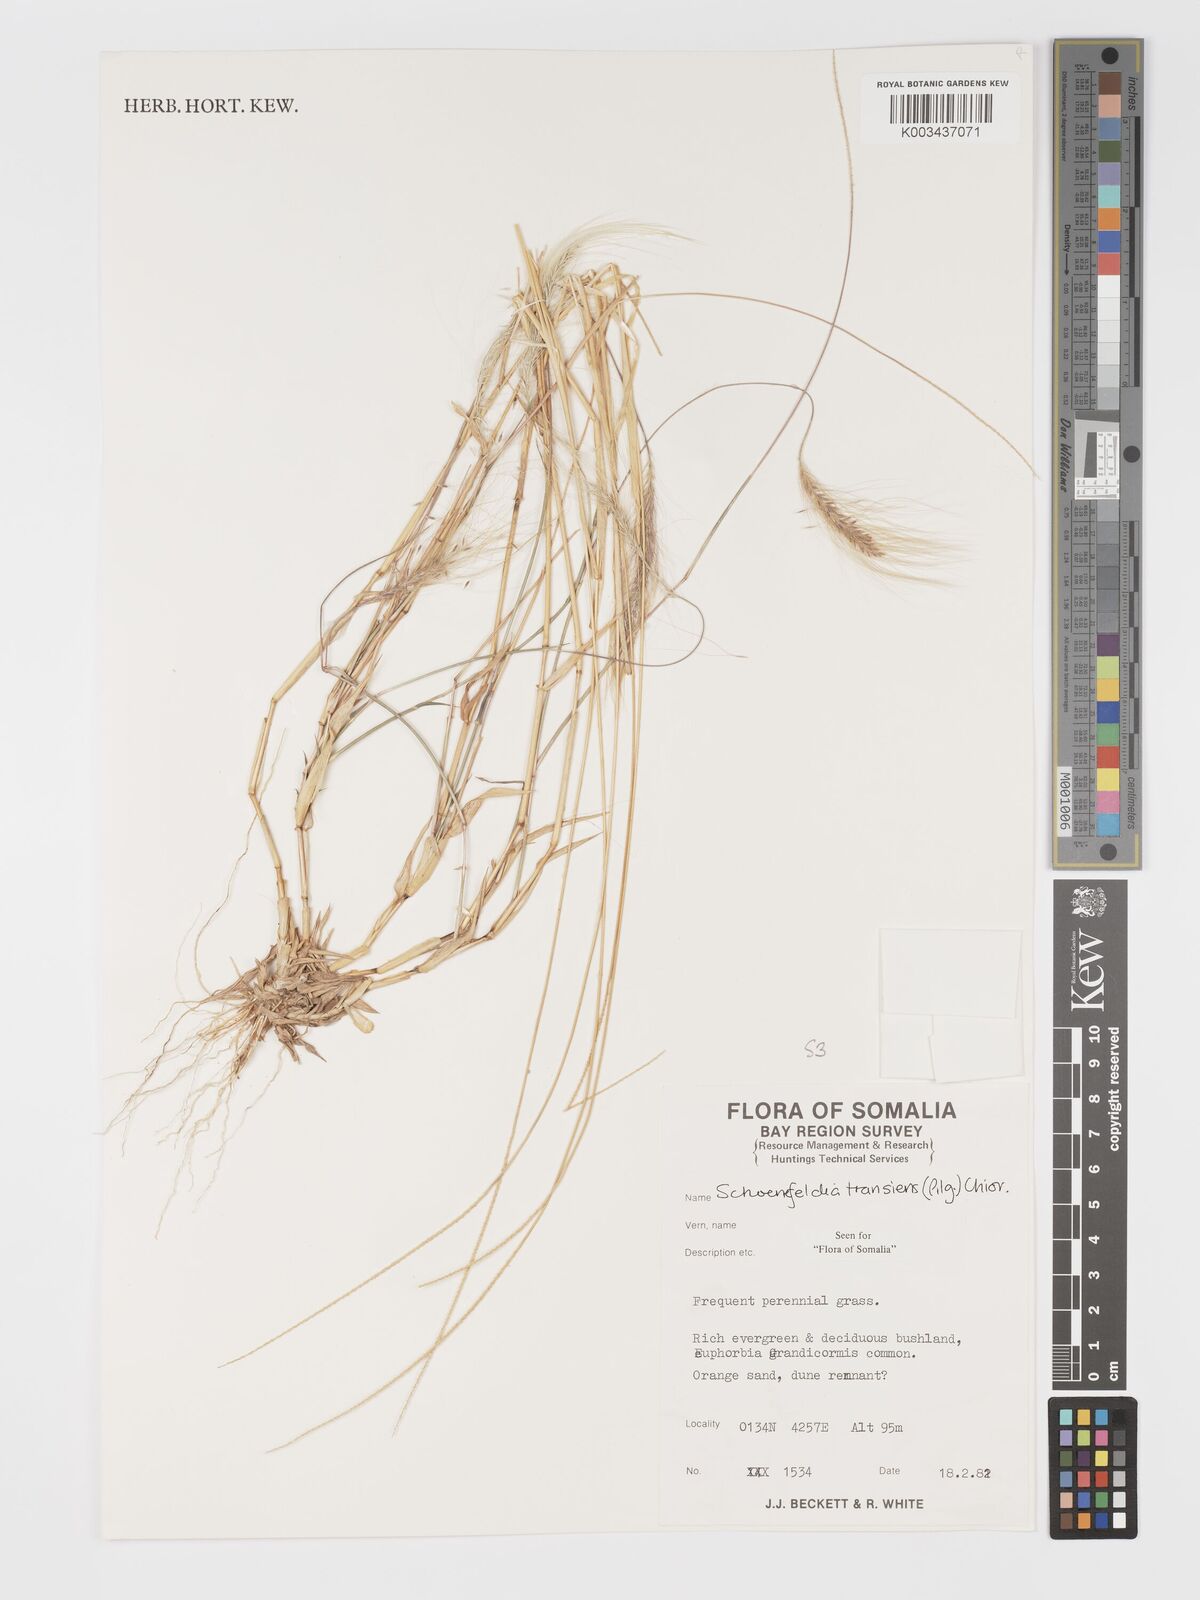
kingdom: Plantae
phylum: Tracheophyta
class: Liliopsida
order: Poales
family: Poaceae
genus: Schoenefeldia
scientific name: Schoenefeldia transiens
